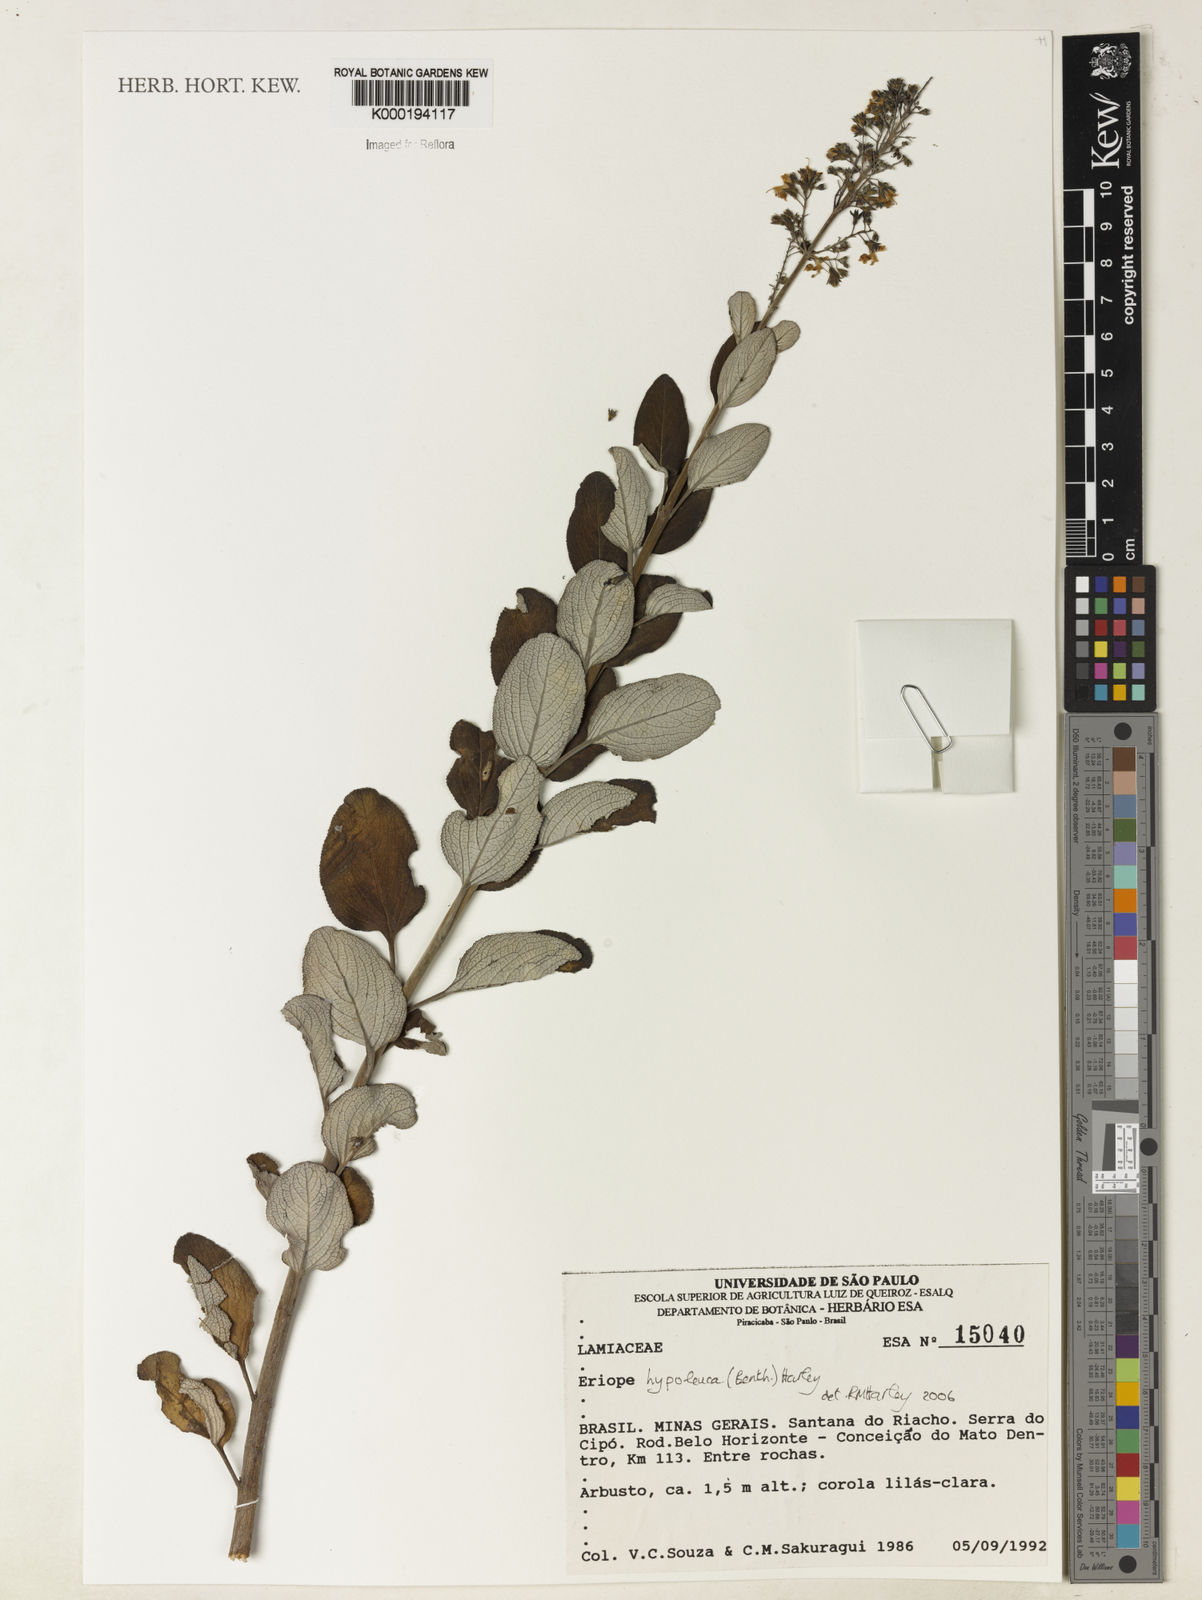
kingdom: Plantae
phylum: Tracheophyta
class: Magnoliopsida
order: Lamiales
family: Lamiaceae
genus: Eriope
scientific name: Eriope hypoleuca
